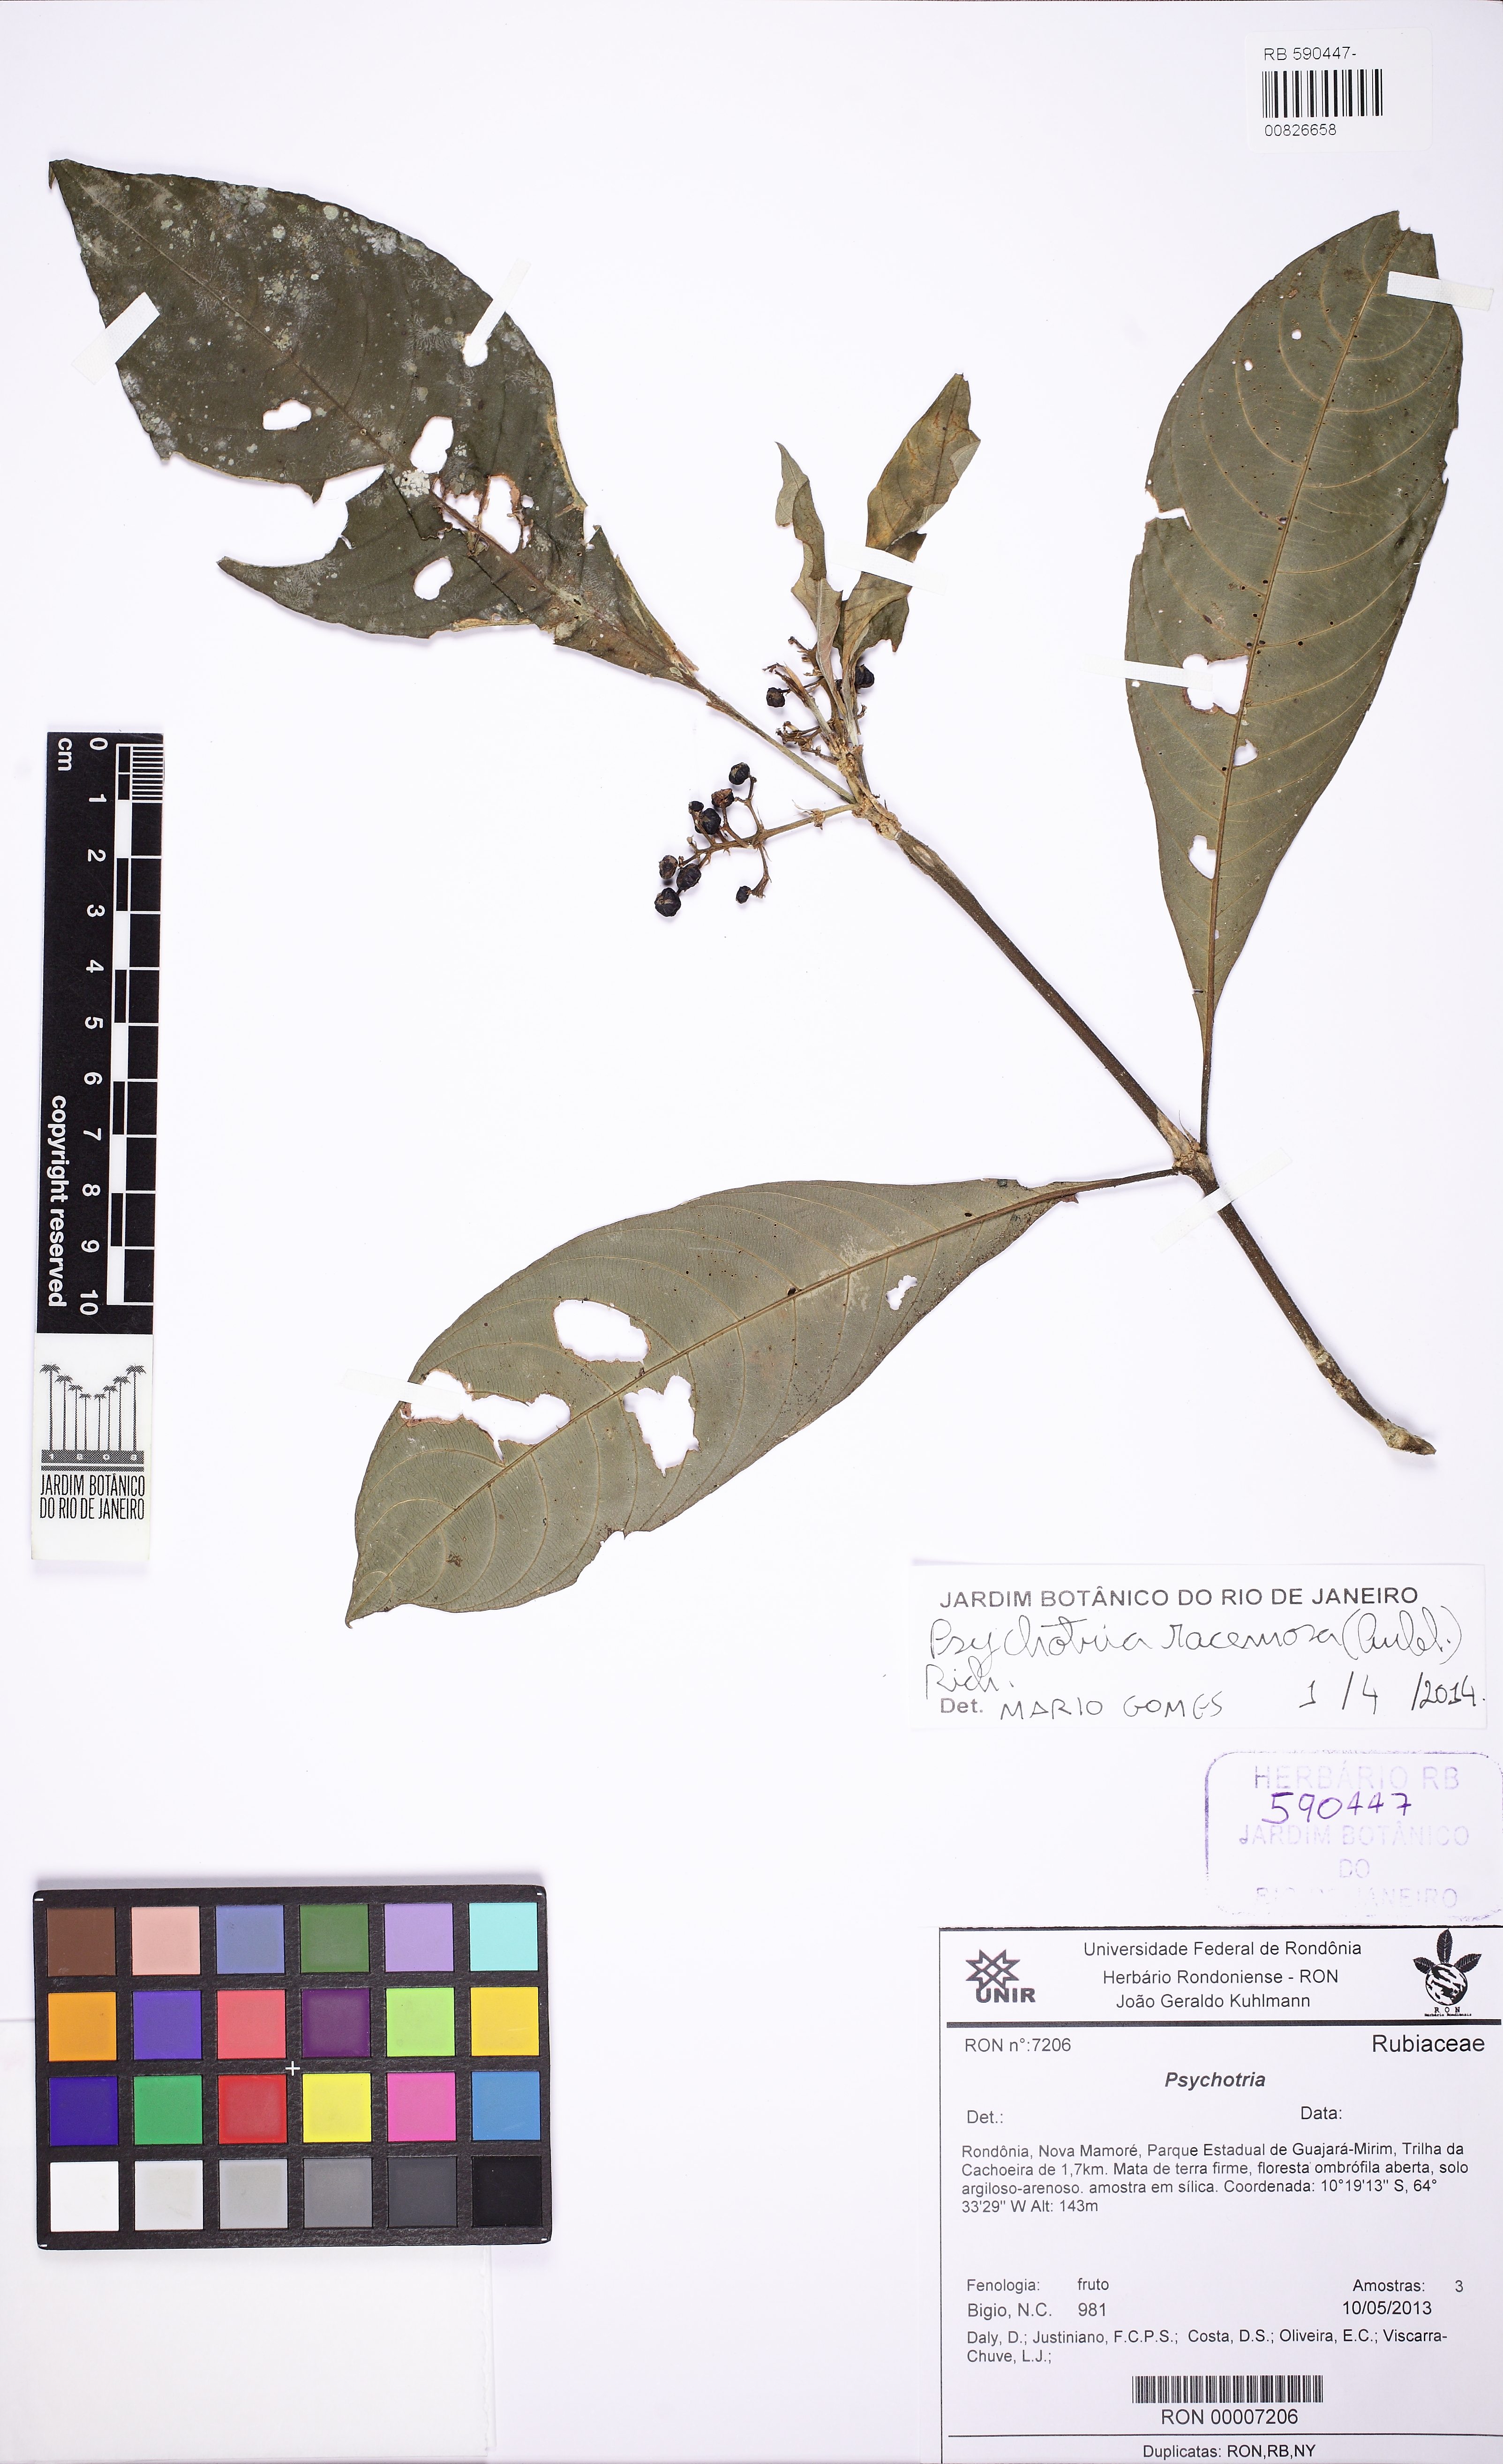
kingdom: Plantae
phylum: Tracheophyta
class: Magnoliopsida
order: Gentianales
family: Rubiaceae
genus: Palicourea
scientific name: Palicourea racemosa
